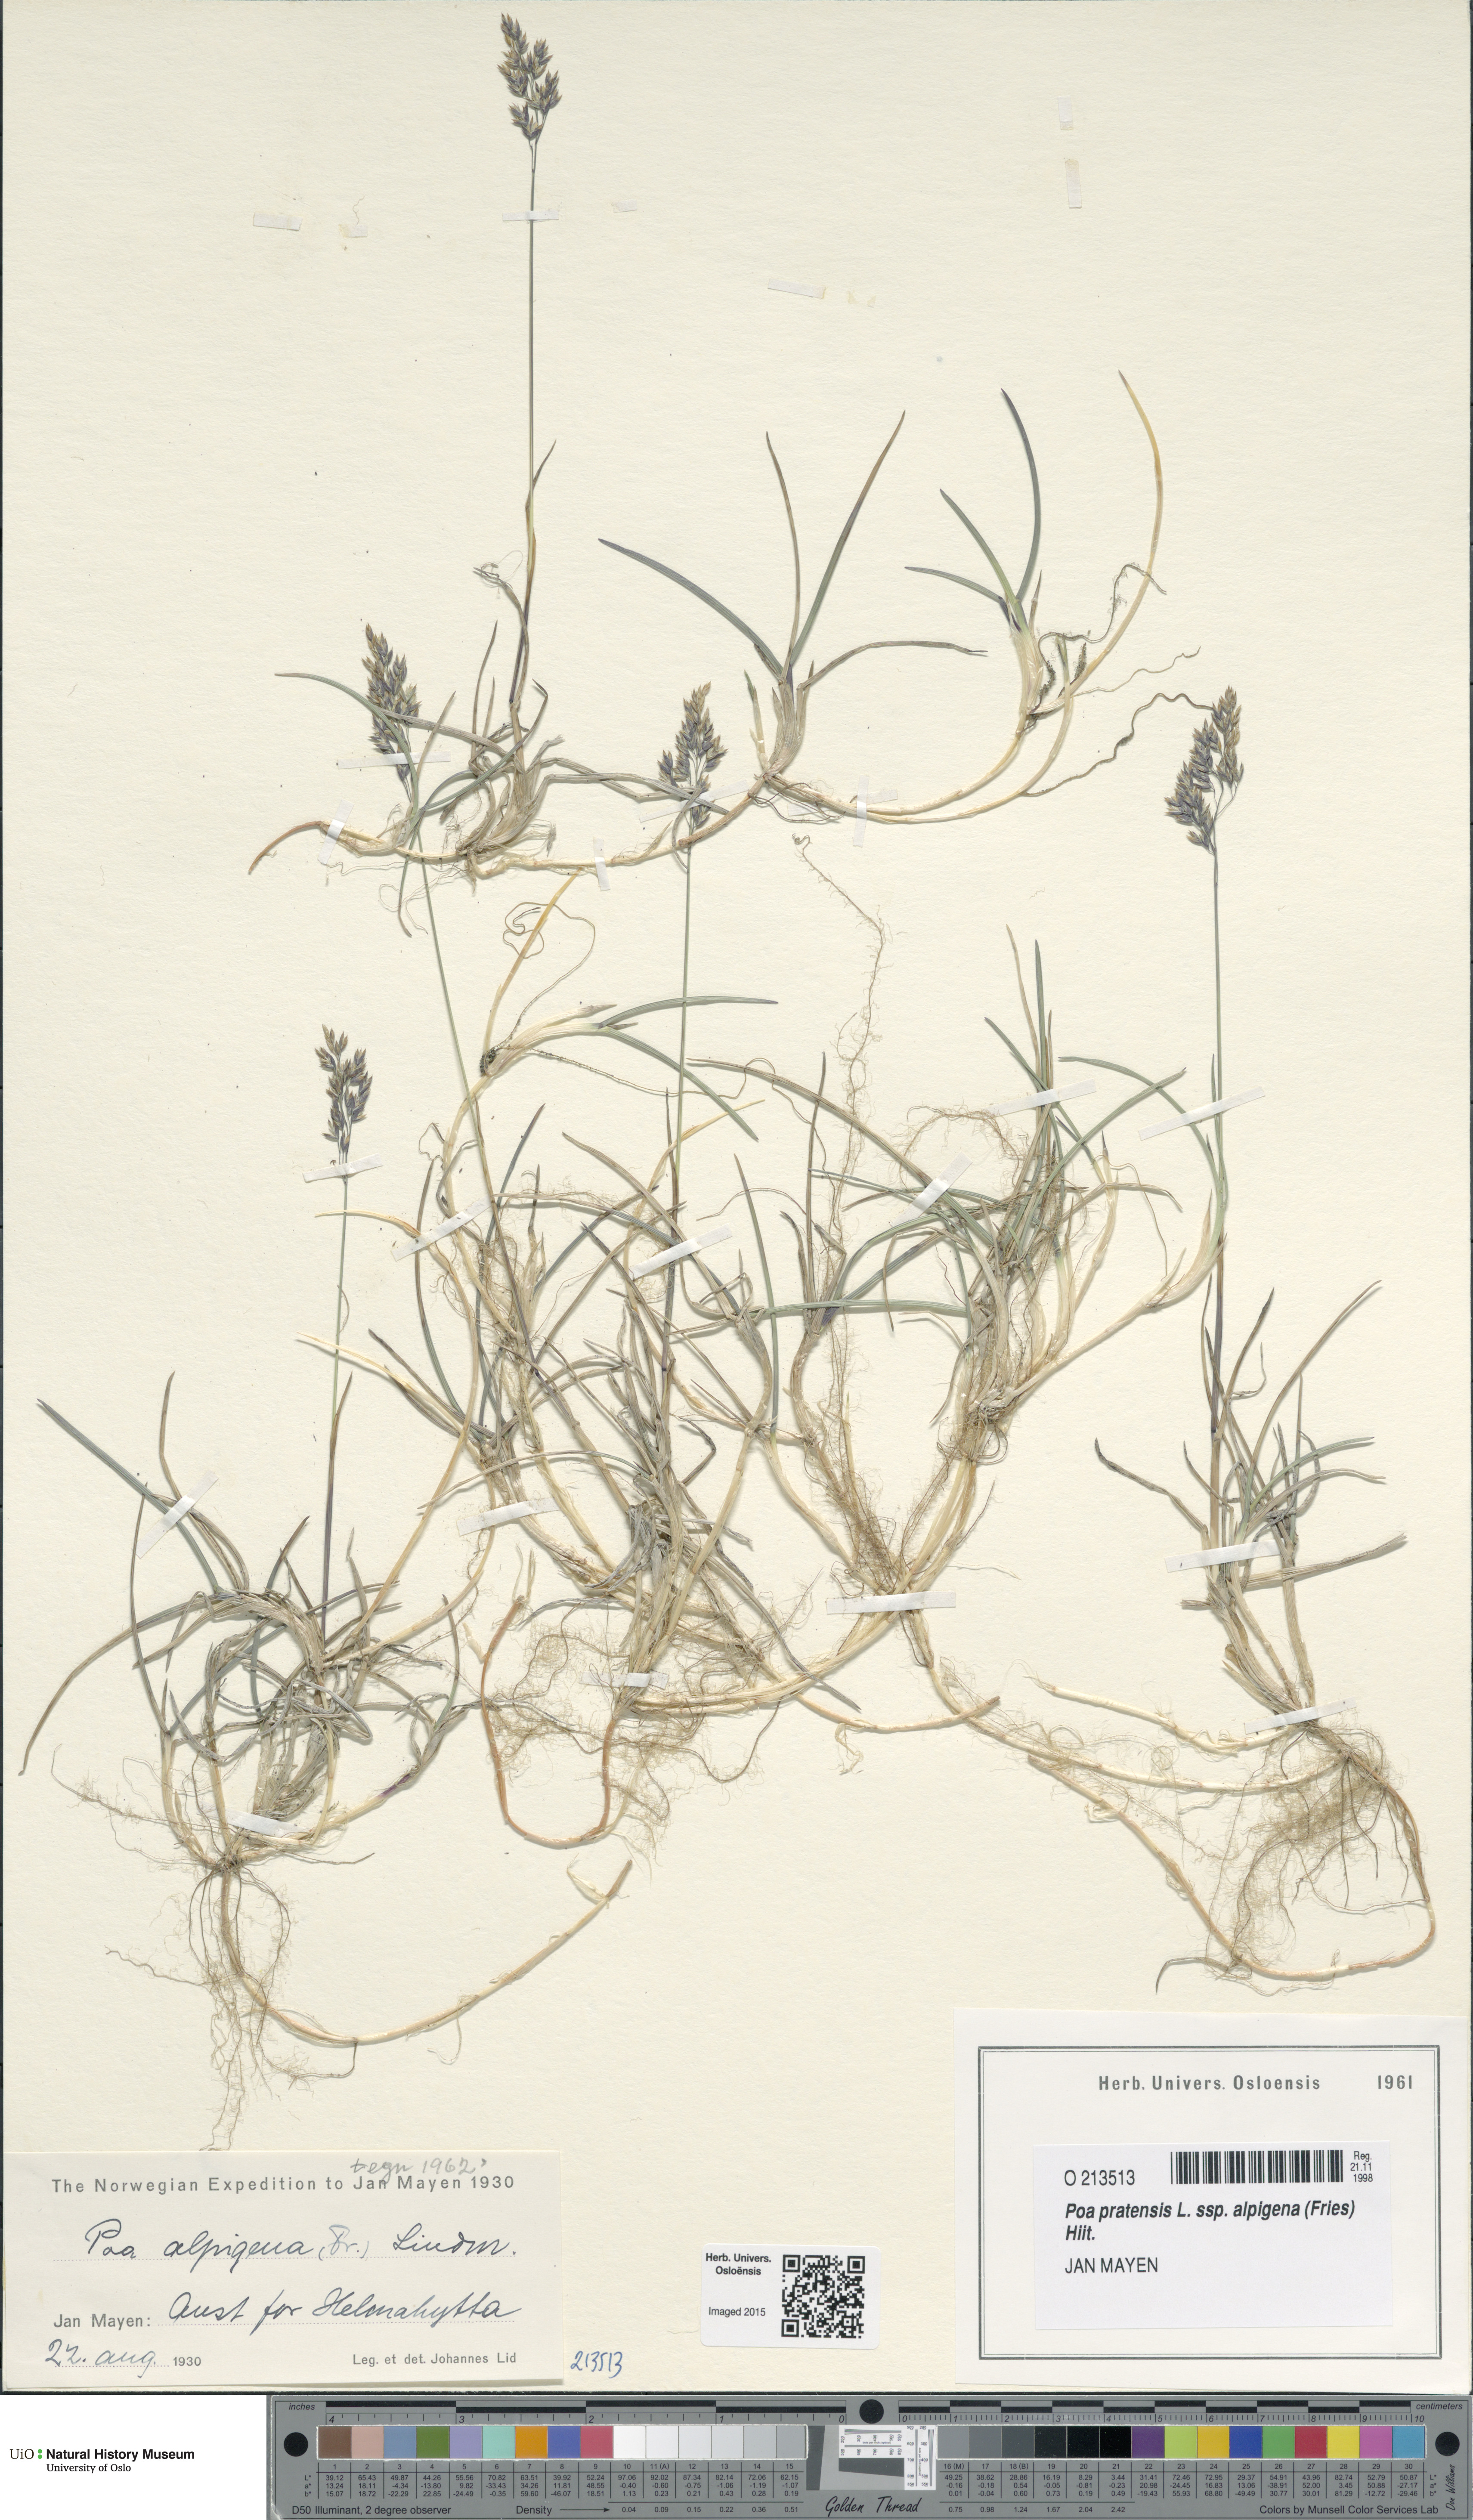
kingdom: Plantae
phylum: Tracheophyta
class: Liliopsida
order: Poales
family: Poaceae
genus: Poa
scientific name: Poa alpigena
